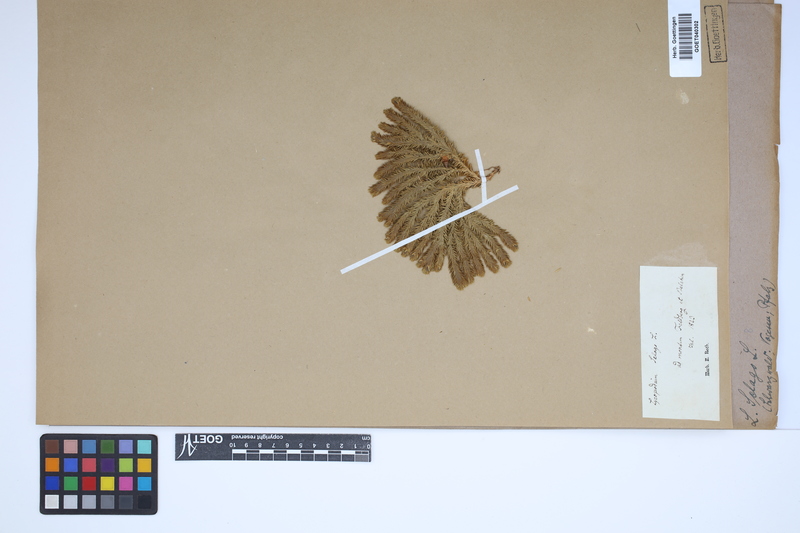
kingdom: Plantae
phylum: Tracheophyta
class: Lycopodiopsida
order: Lycopodiales
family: Lycopodiaceae
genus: Huperzia
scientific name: Huperzia selago
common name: Northern firmoss
